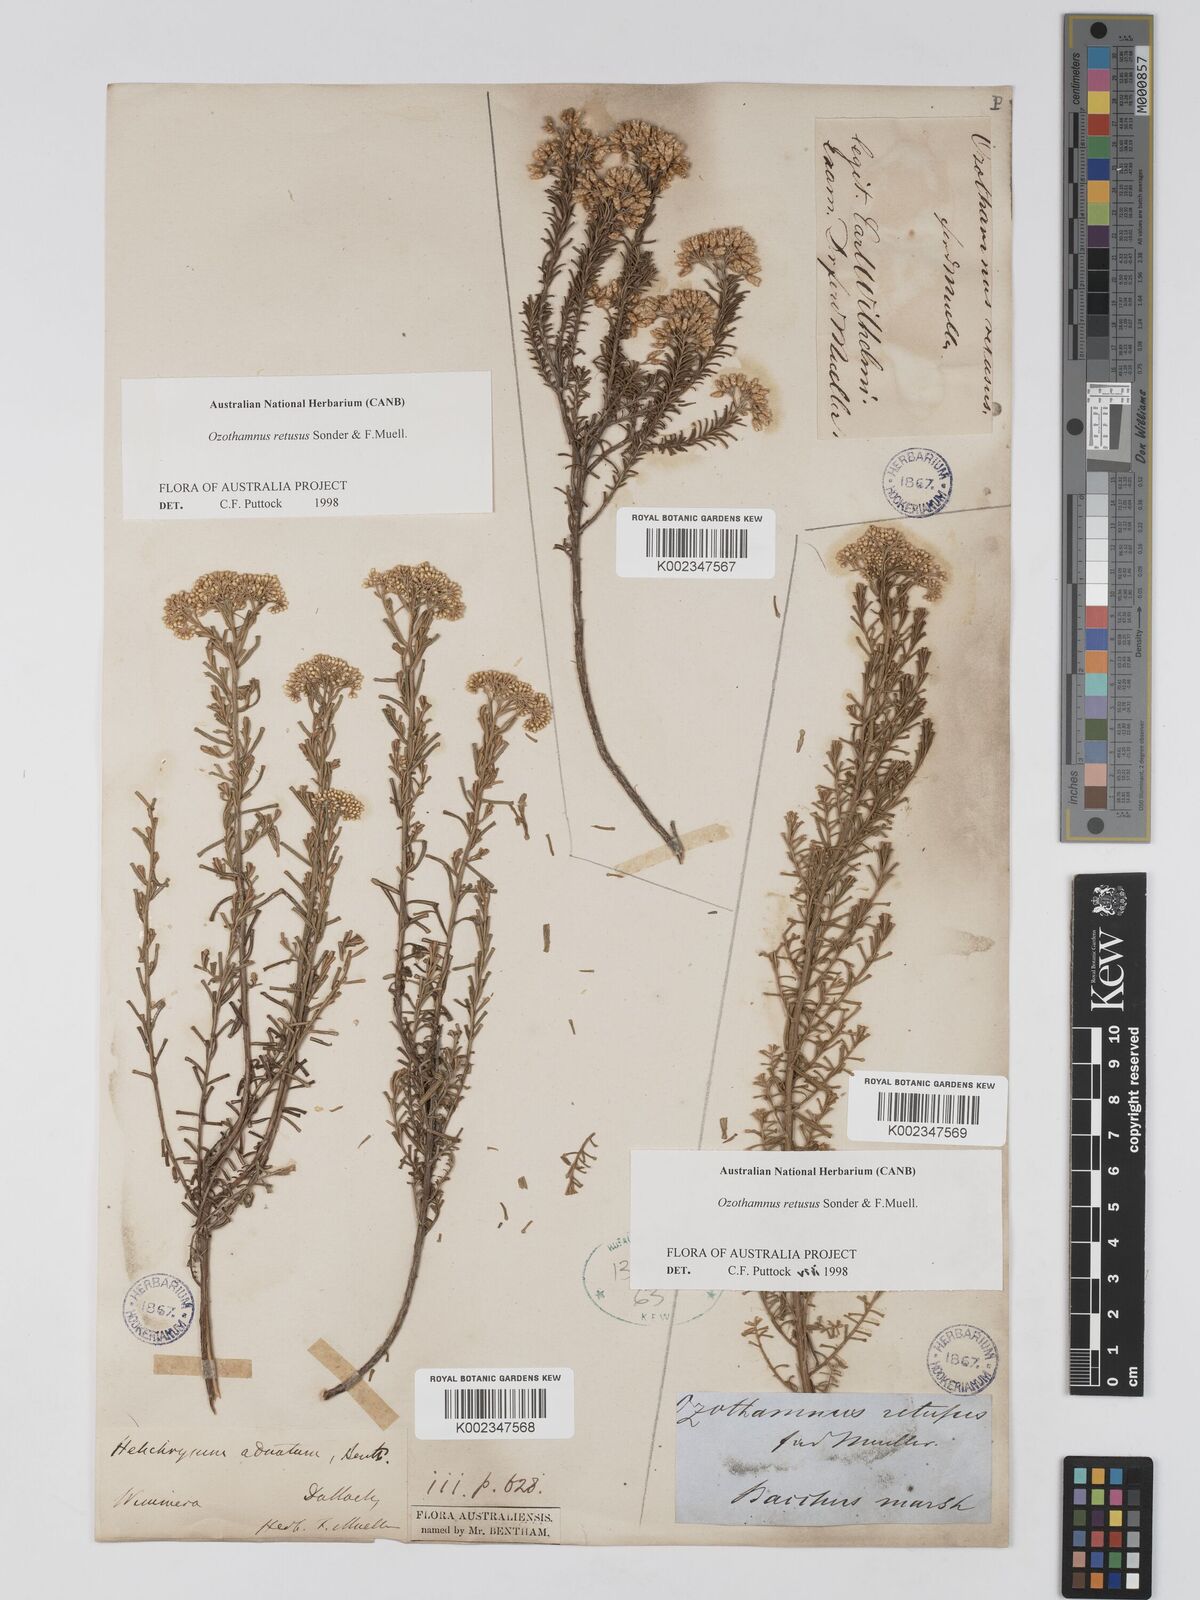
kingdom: Plantae
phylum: Tracheophyta
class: Magnoliopsida
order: Asterales
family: Asteraceae
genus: Ozothamnus
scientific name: Ozothamnus adnatus
